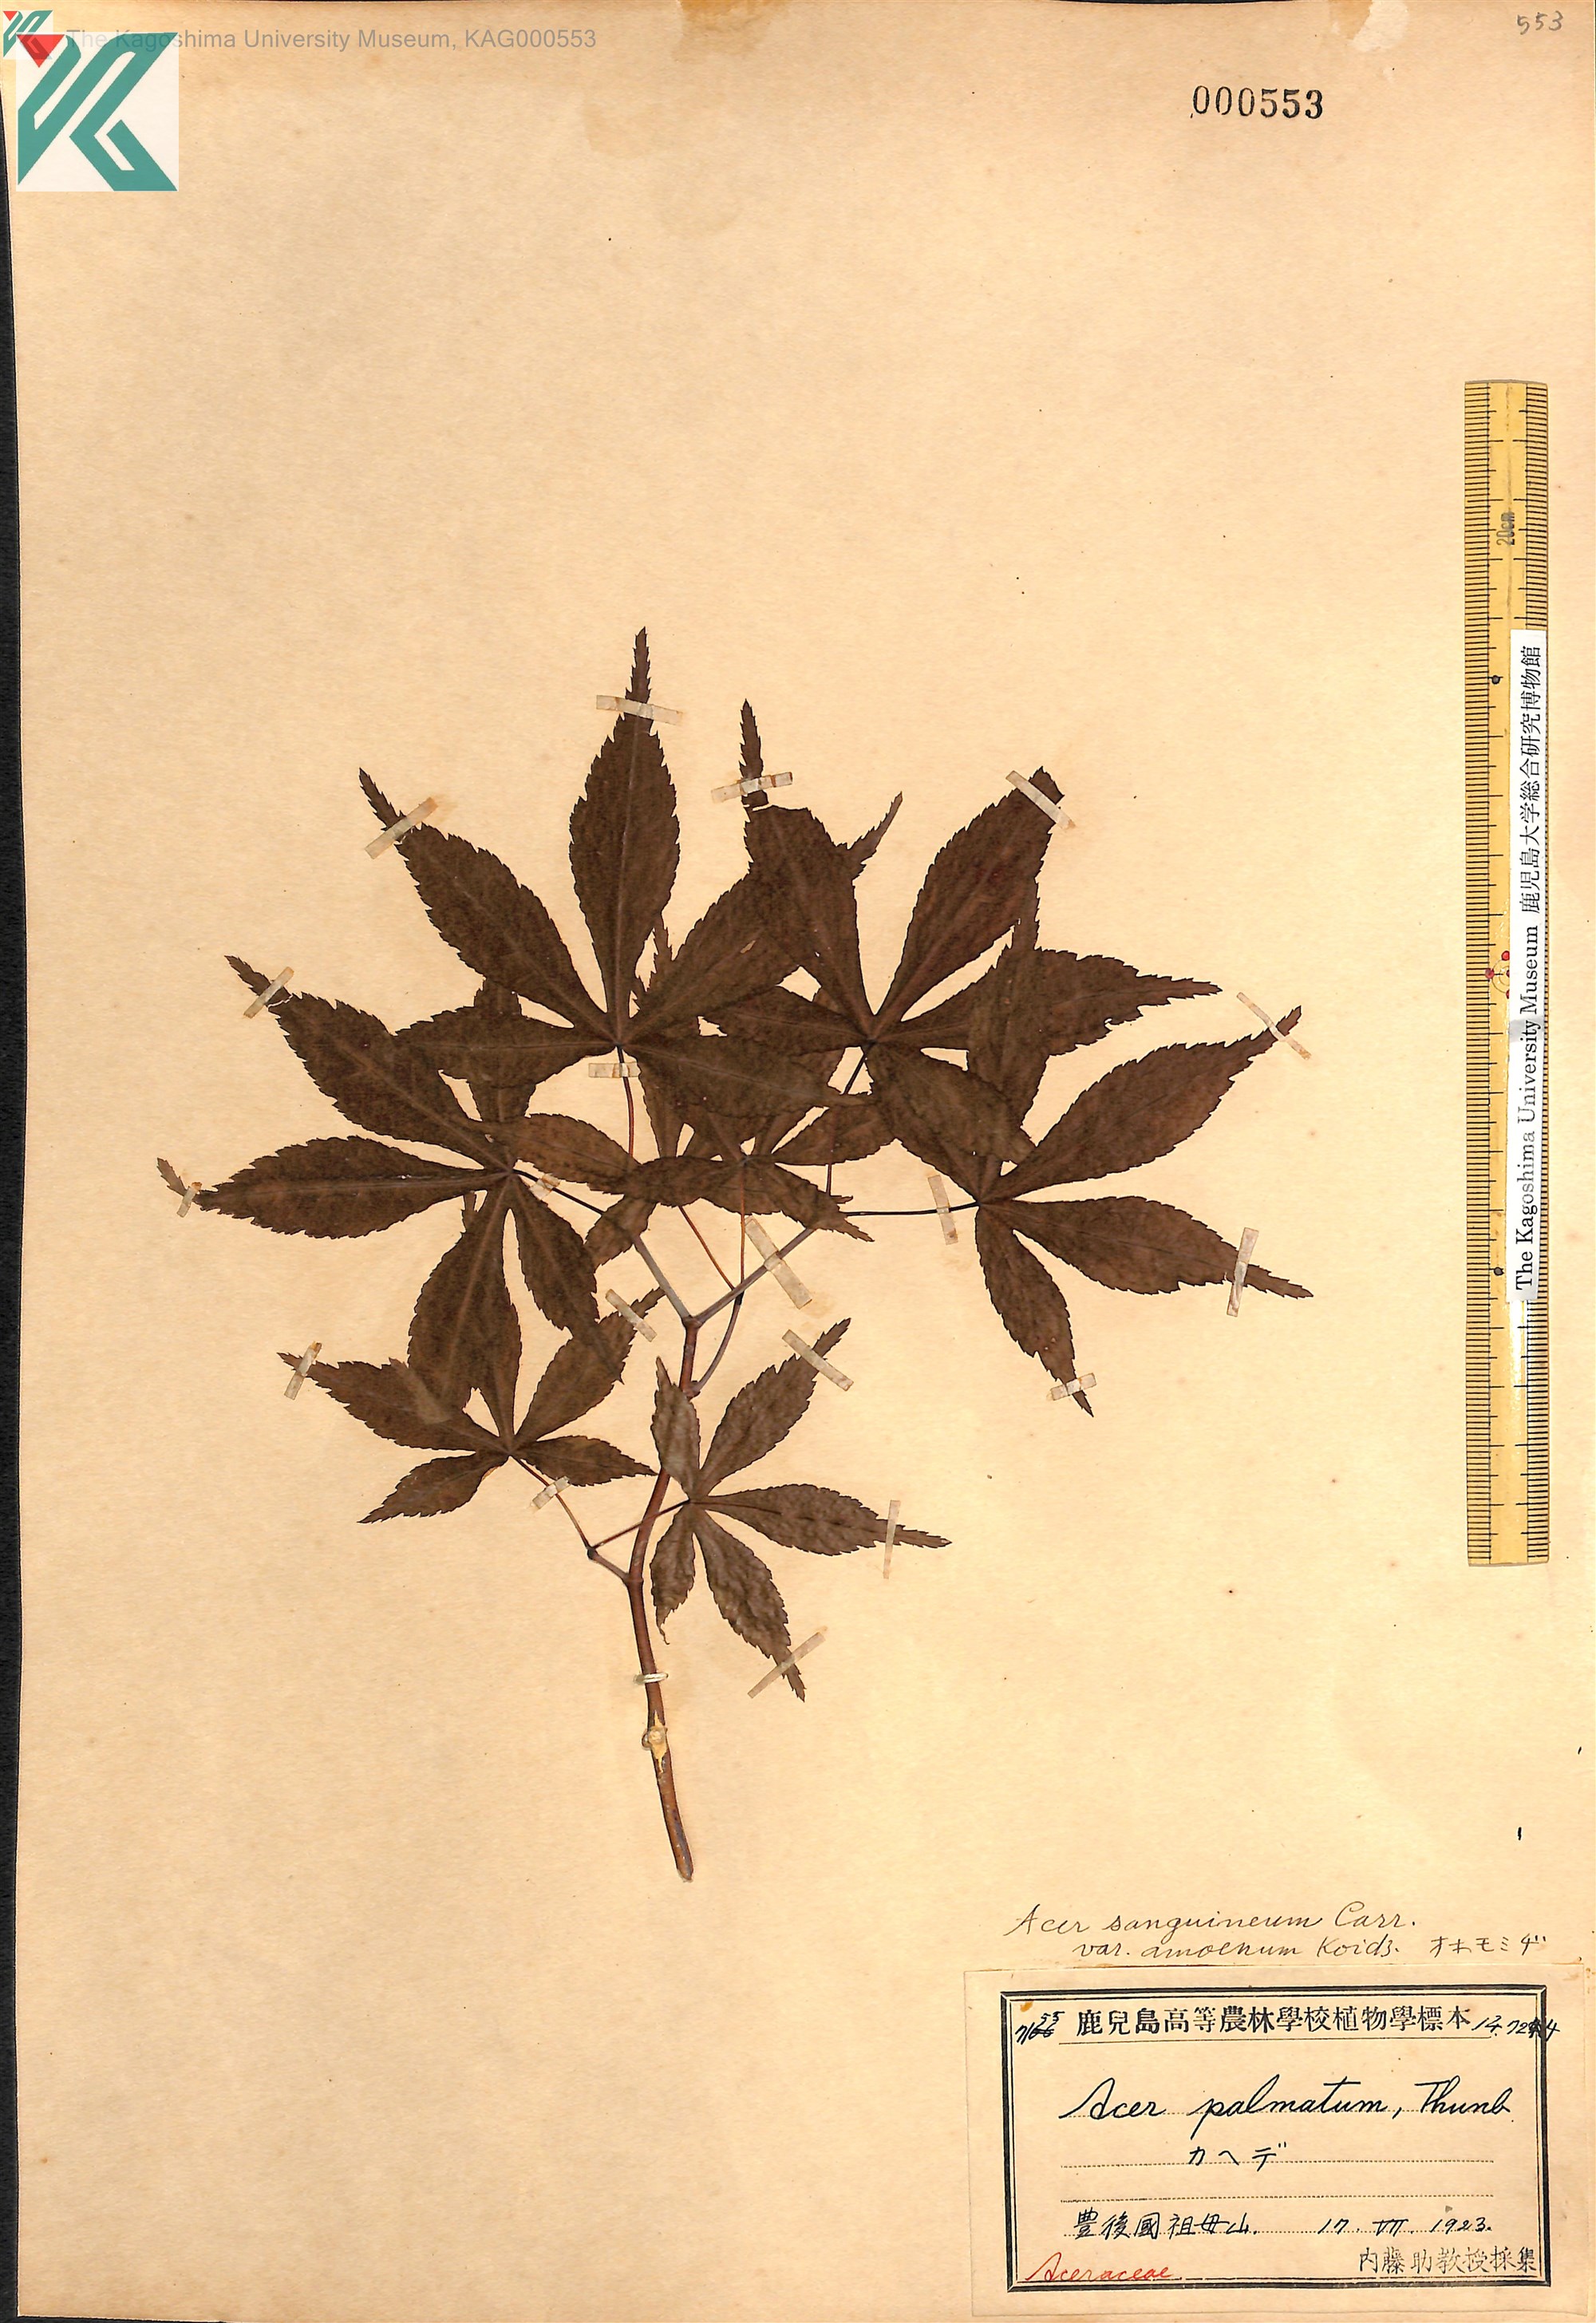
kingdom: Plantae
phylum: Tracheophyta
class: Magnoliopsida
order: Sapindales
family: Sapindaceae
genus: Acer
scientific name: Acer palmatum
